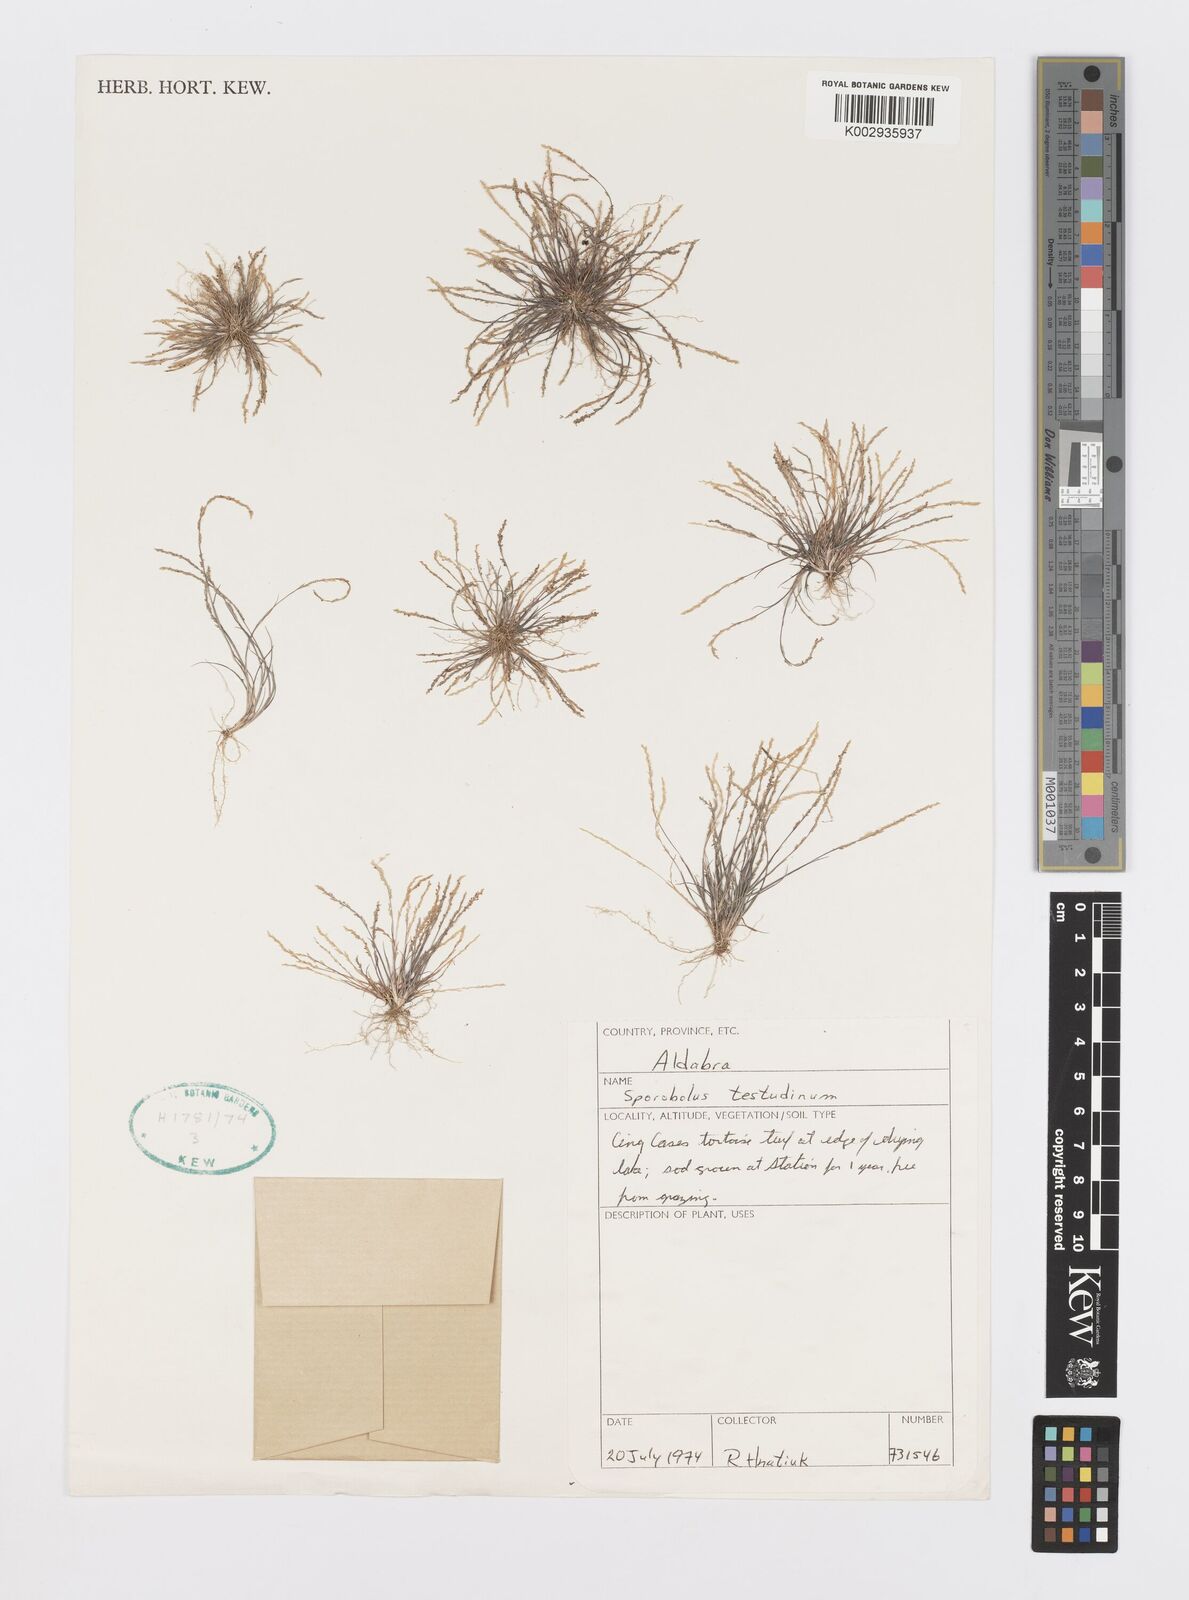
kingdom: Plantae
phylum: Tracheophyta
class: Liliopsida
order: Poales
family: Poaceae
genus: Sporobolus
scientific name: Sporobolus testudinum
